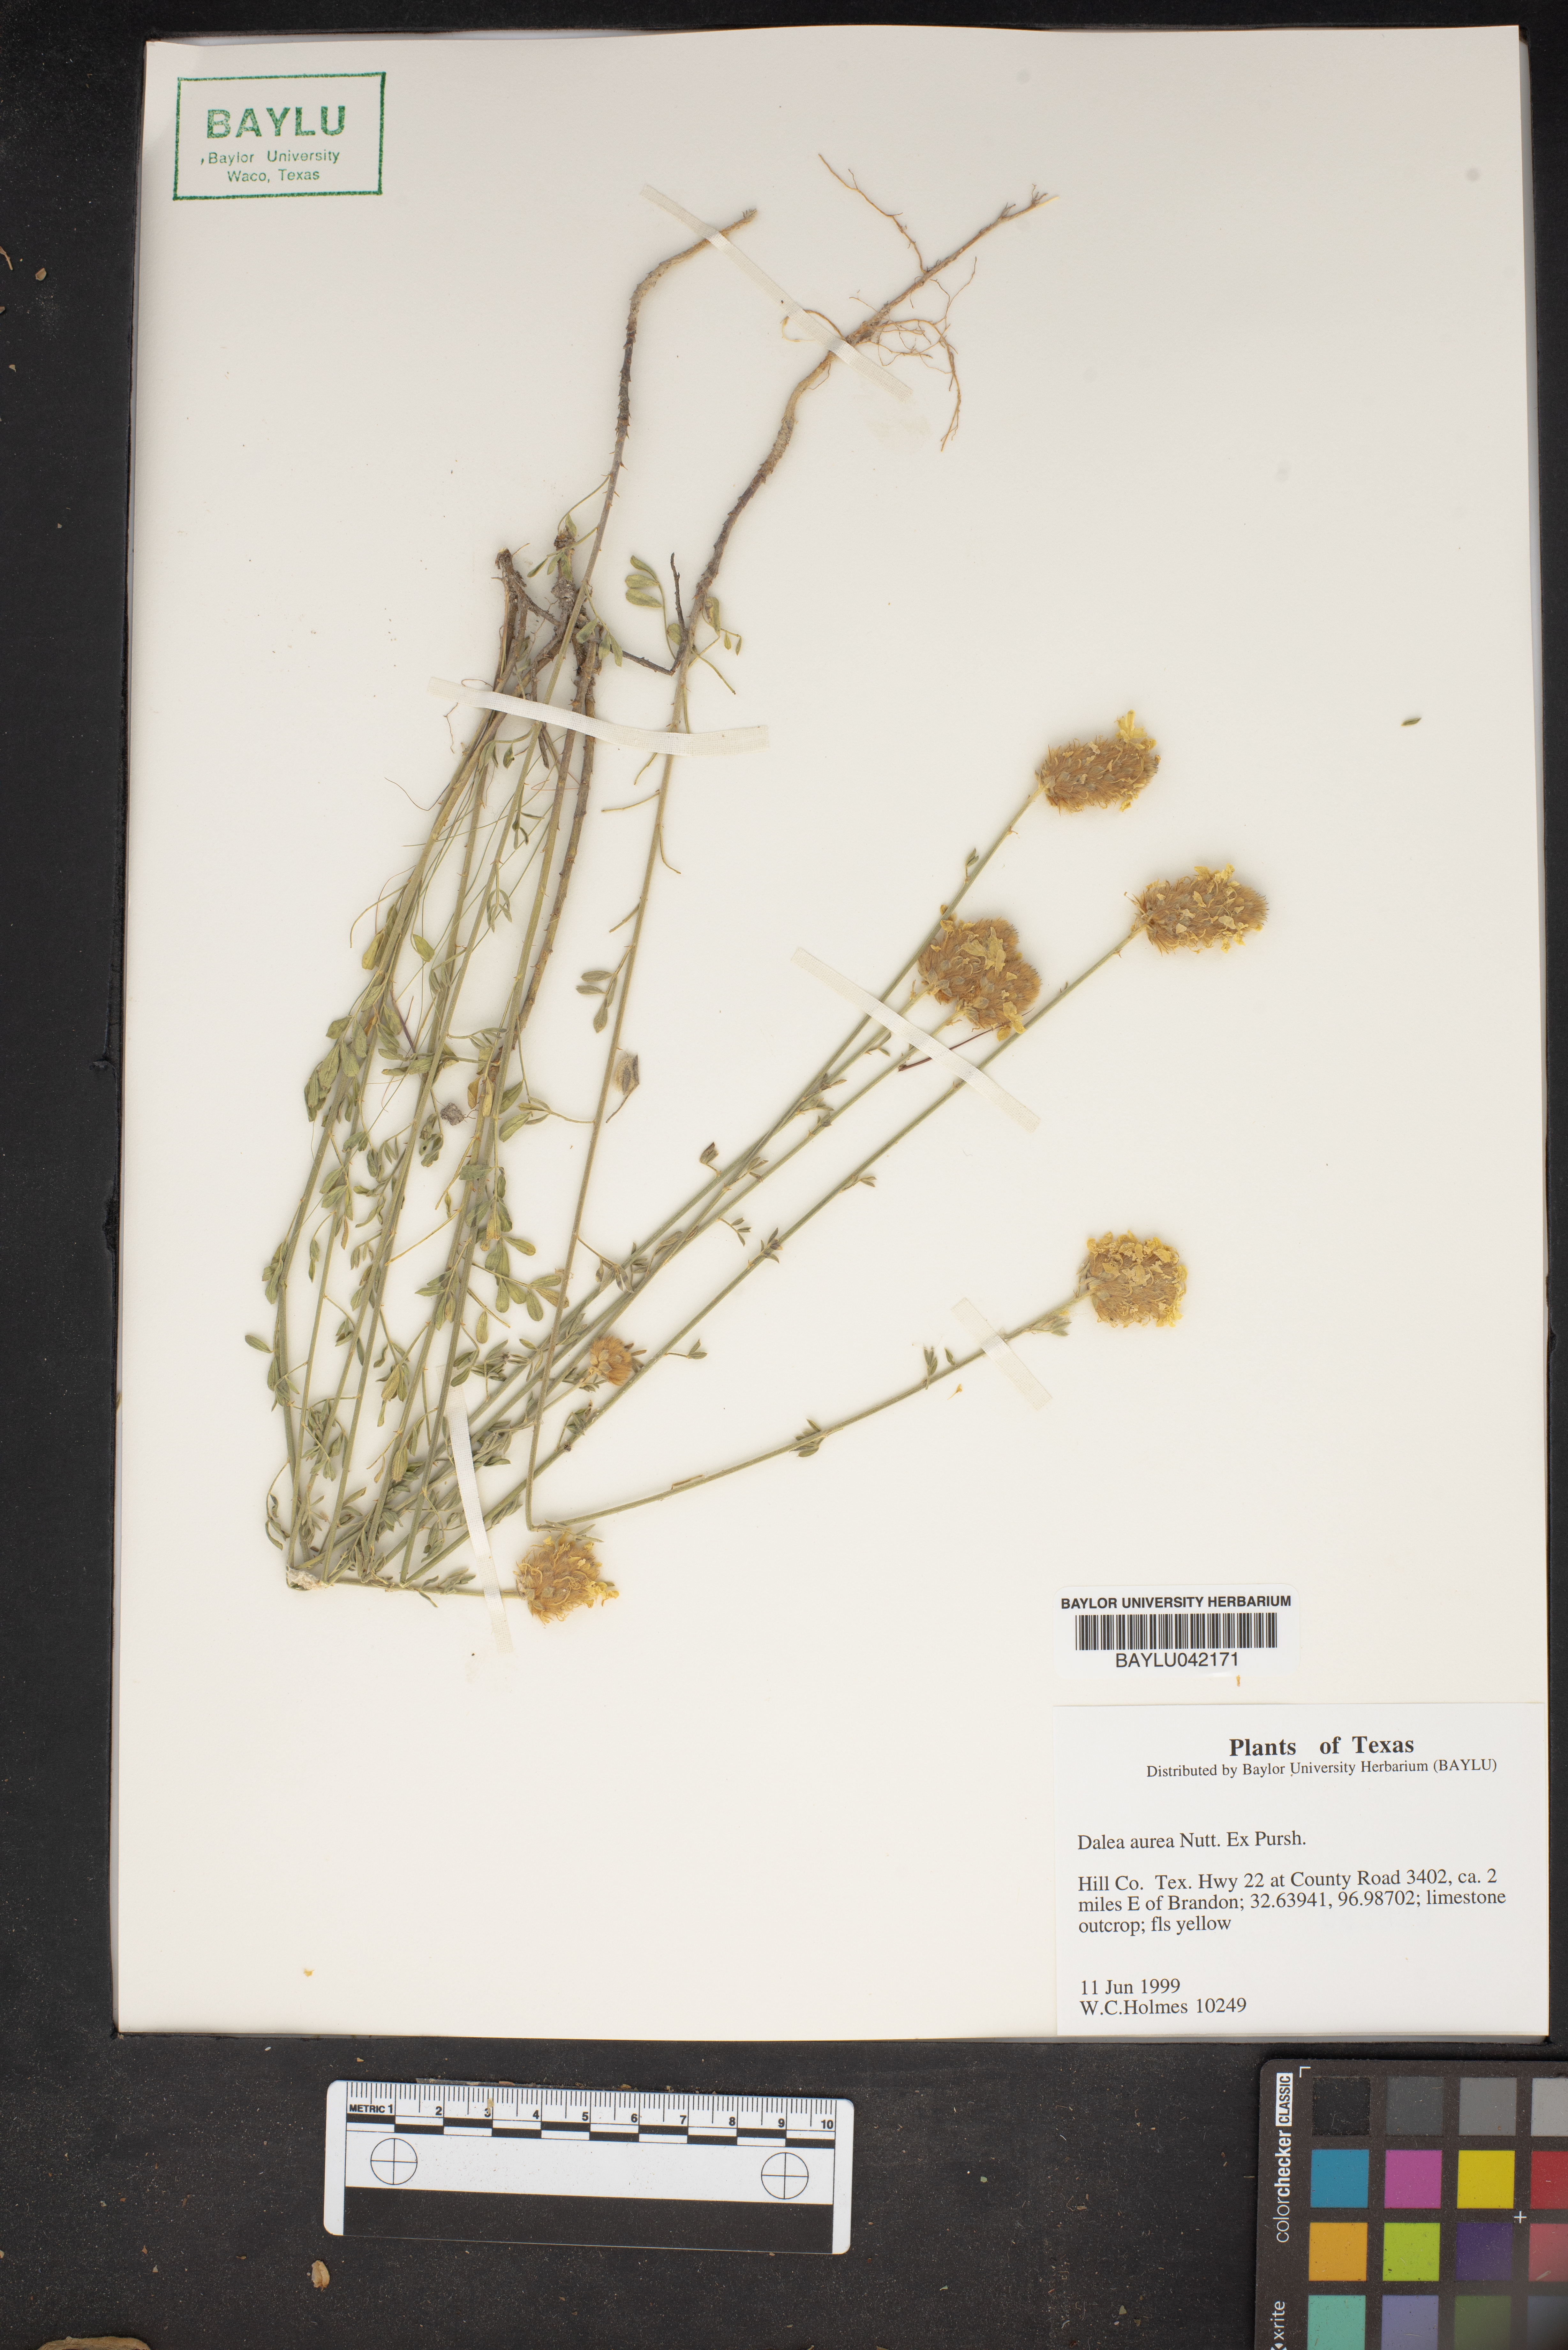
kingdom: Plantae
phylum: Tracheophyta
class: Magnoliopsida
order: Fabales
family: Fabaceae
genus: Dalea
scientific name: Dalea aurea
